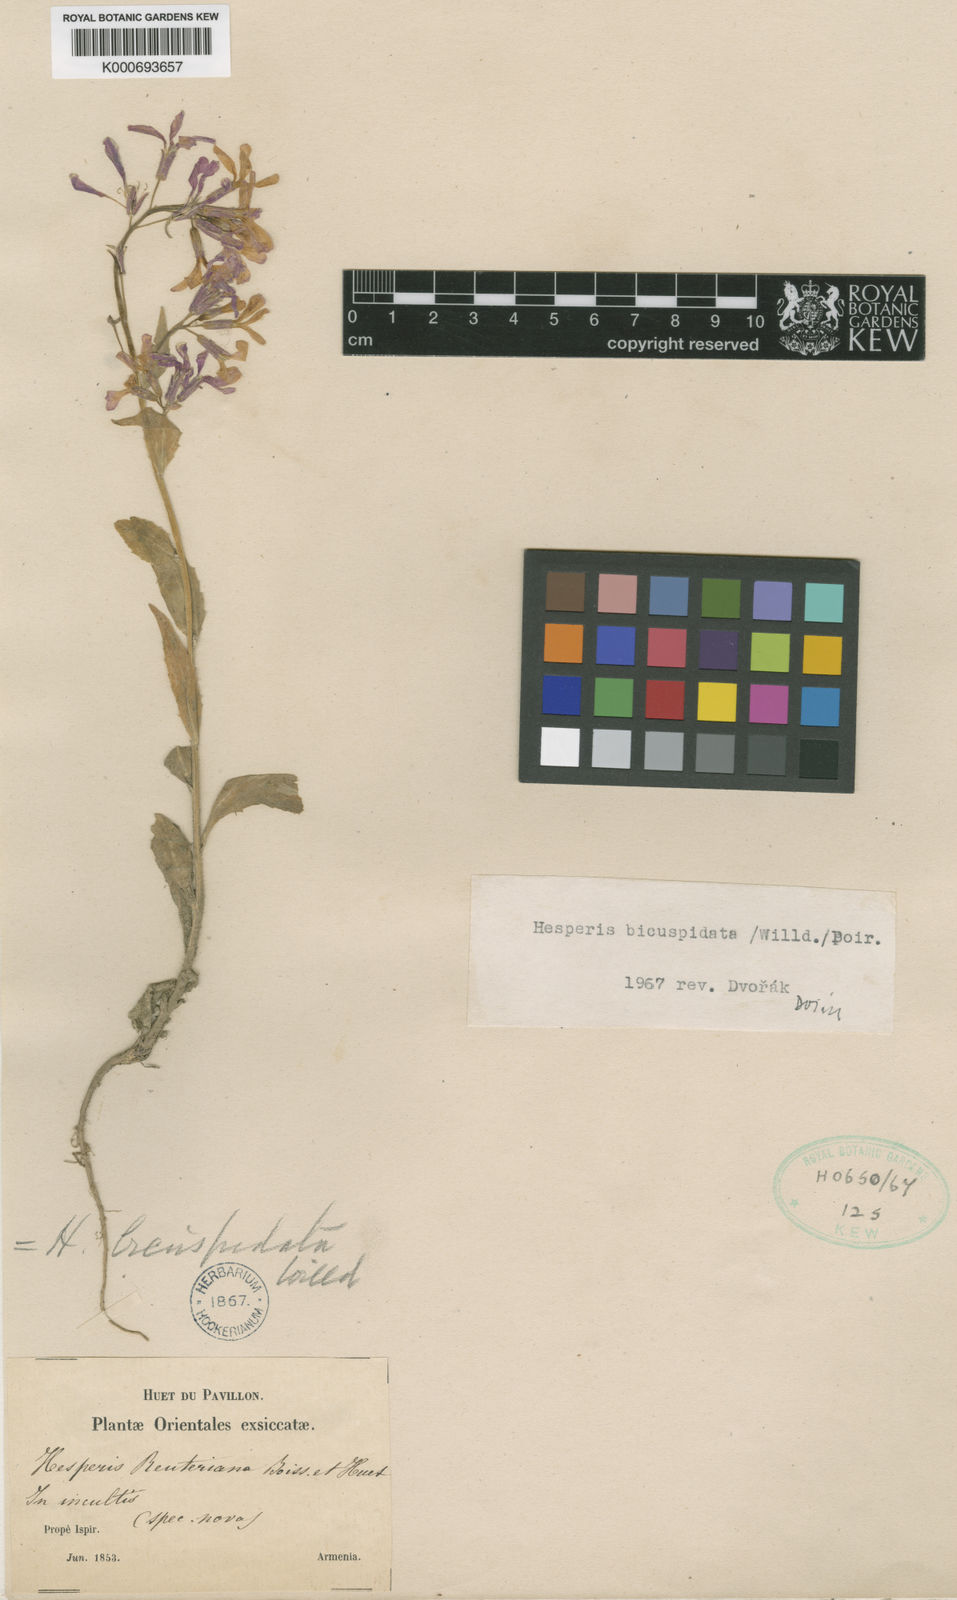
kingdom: Plantae
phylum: Tracheophyta
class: Magnoliopsida
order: Brassicales
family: Brassicaceae
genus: Hesperis
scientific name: Hesperis bicuspidata
